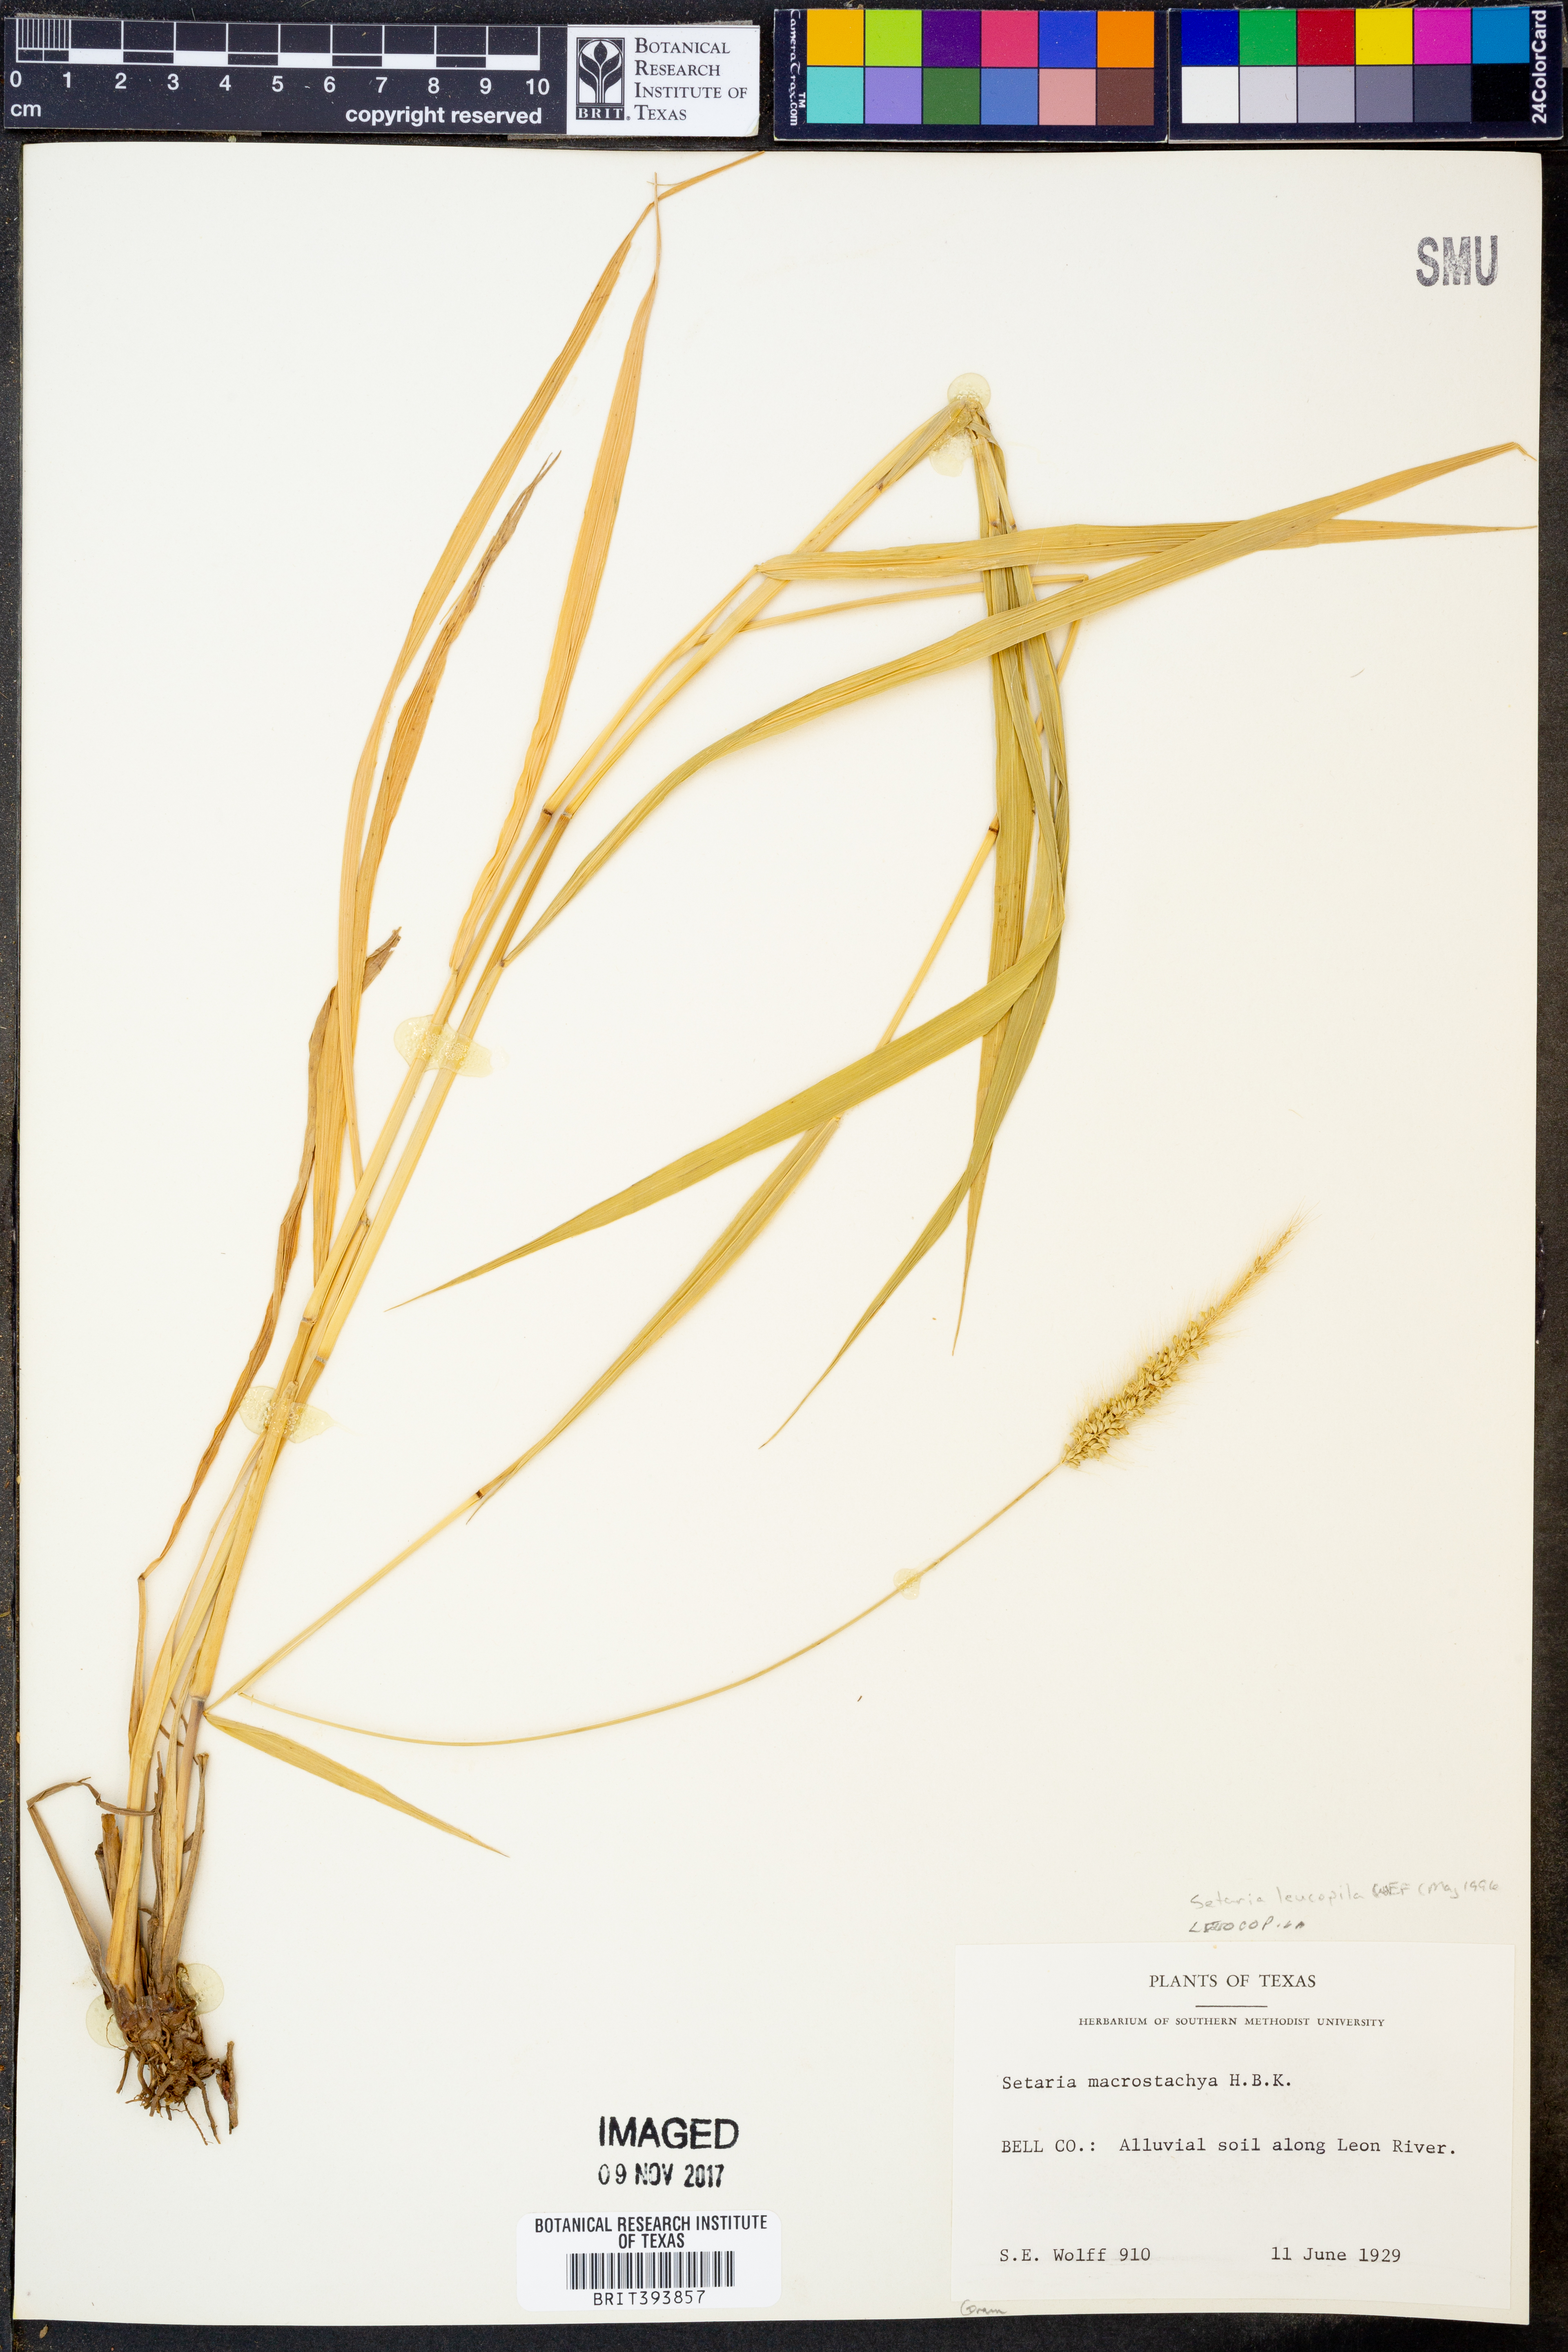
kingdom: Plantae
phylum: Tracheophyta
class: Liliopsida
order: Poales
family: Poaceae
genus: Setaria
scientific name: Setaria leucopila
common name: Plains bristle grass
